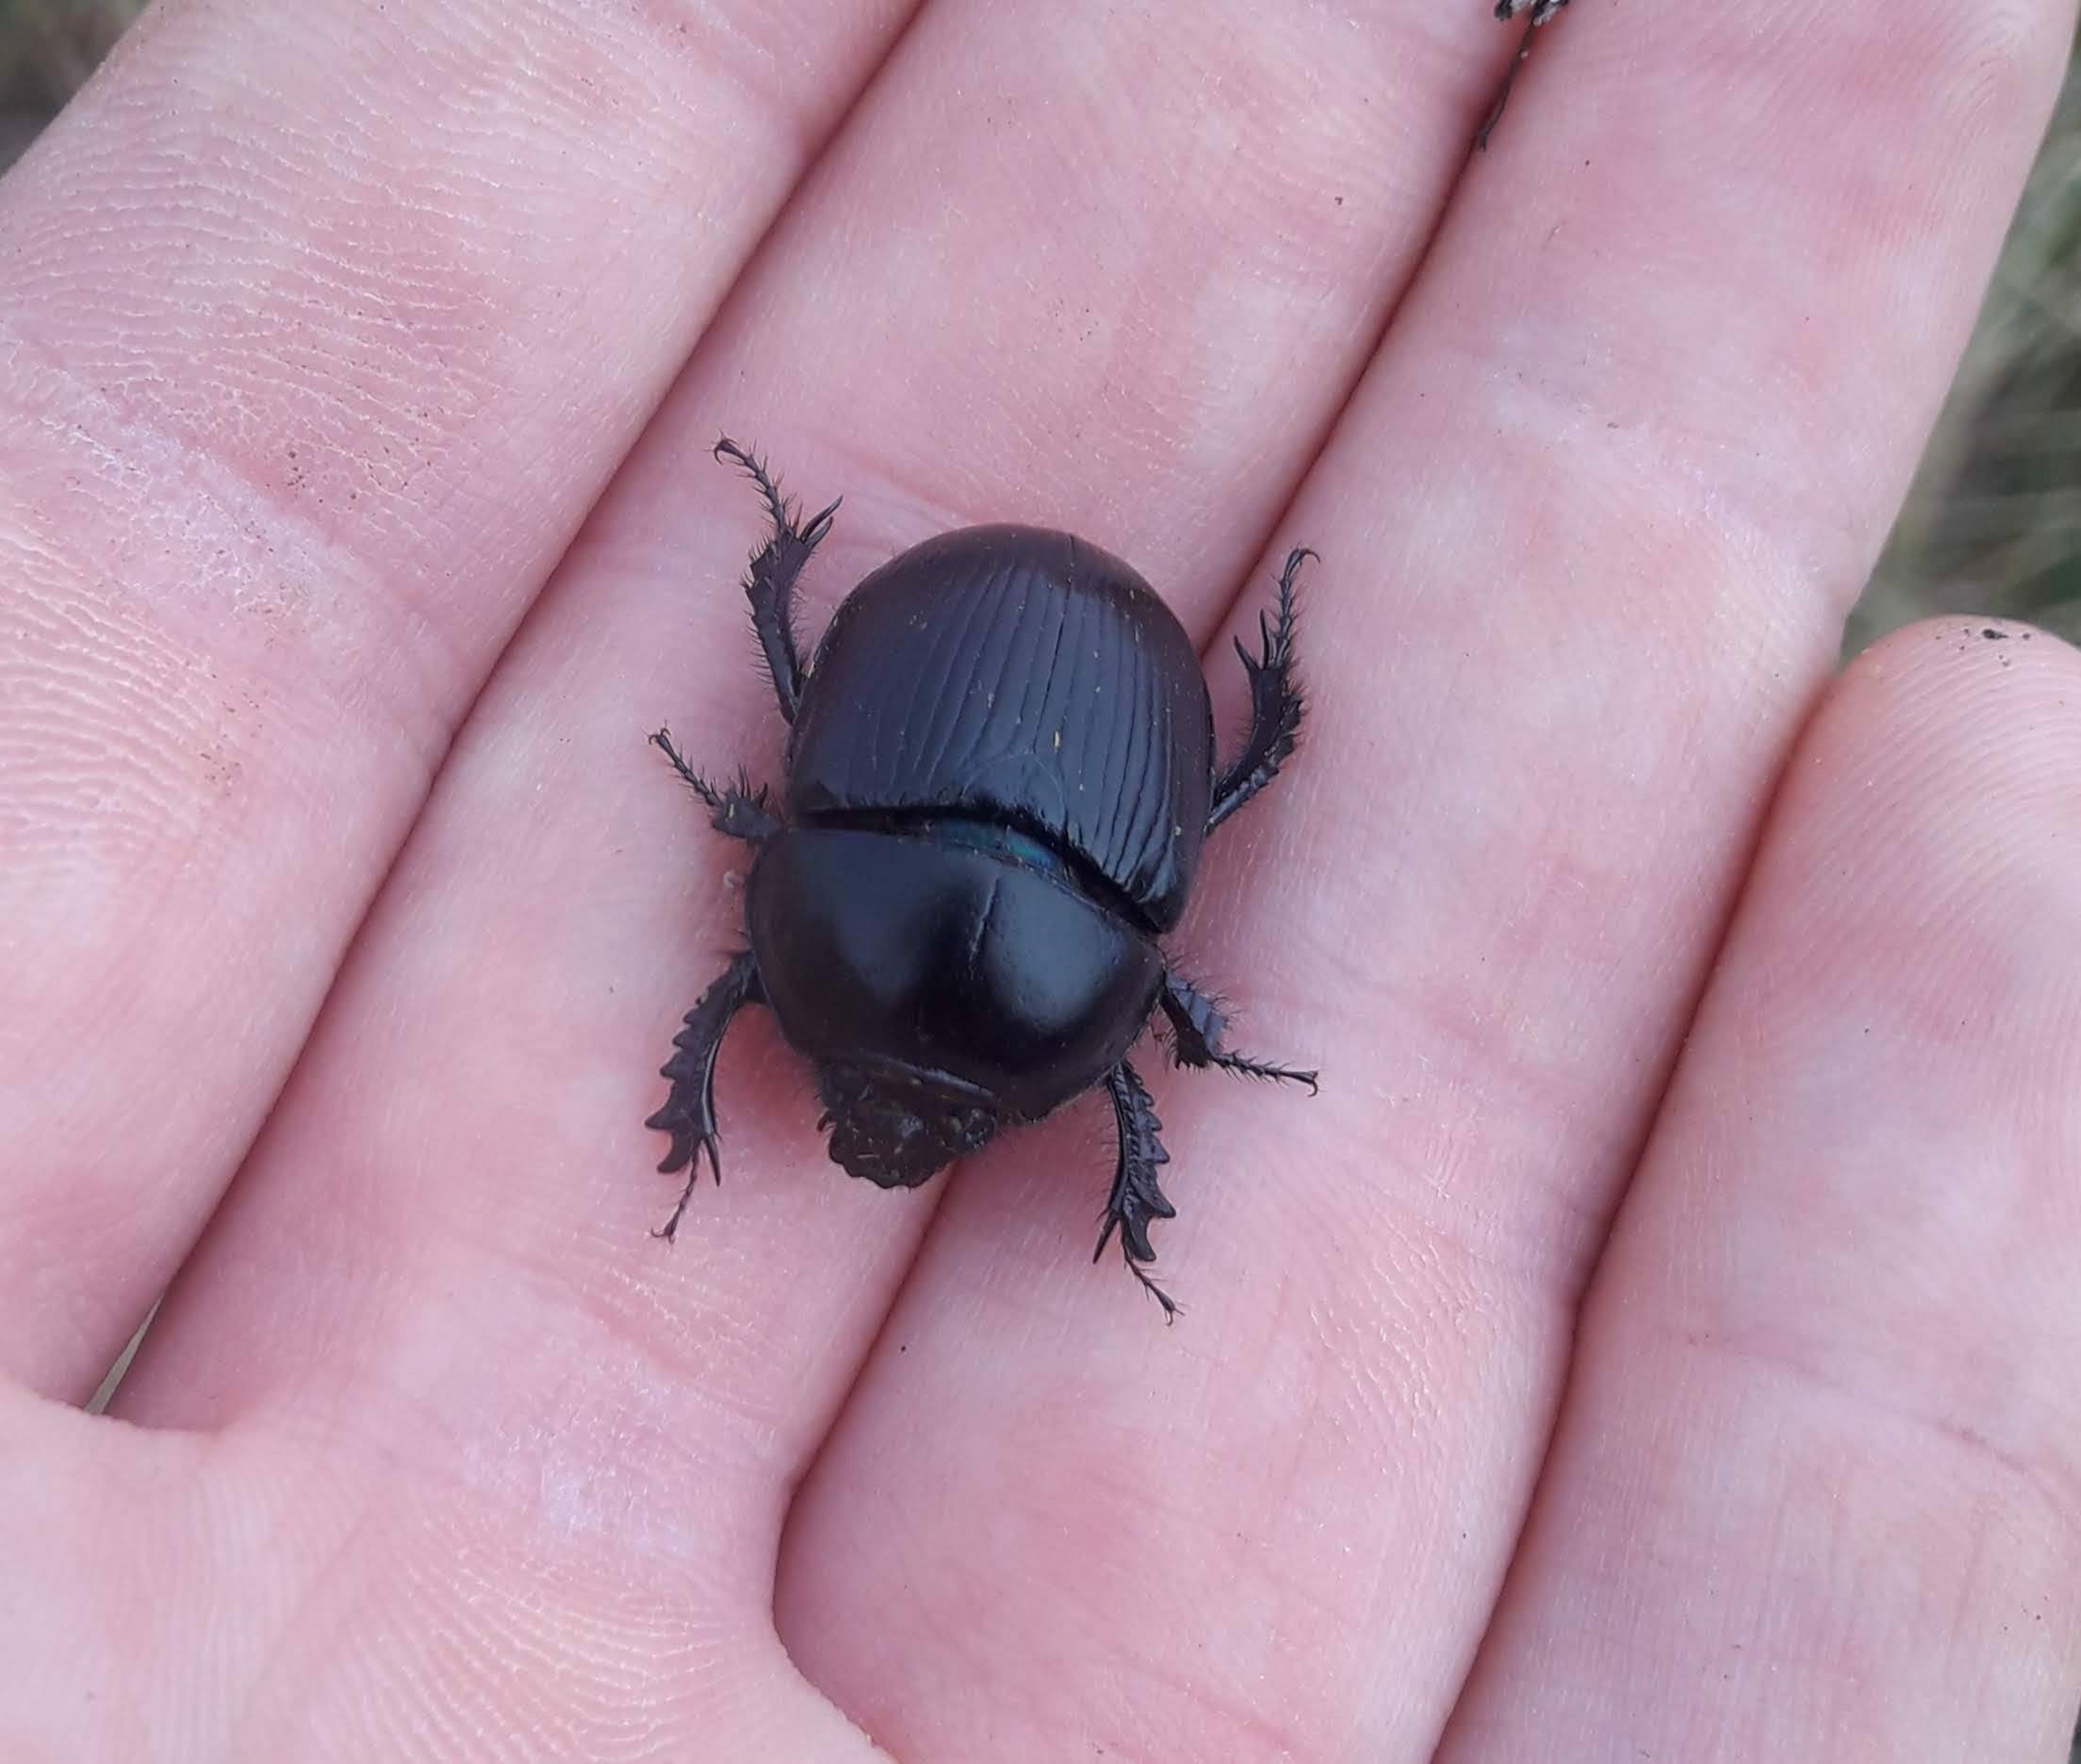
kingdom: Animalia
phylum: Arthropoda
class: Insecta
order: Coleoptera
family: Geotrupidae
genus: Geotrupes
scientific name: Geotrupes spiniger
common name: Markskarnbasse
